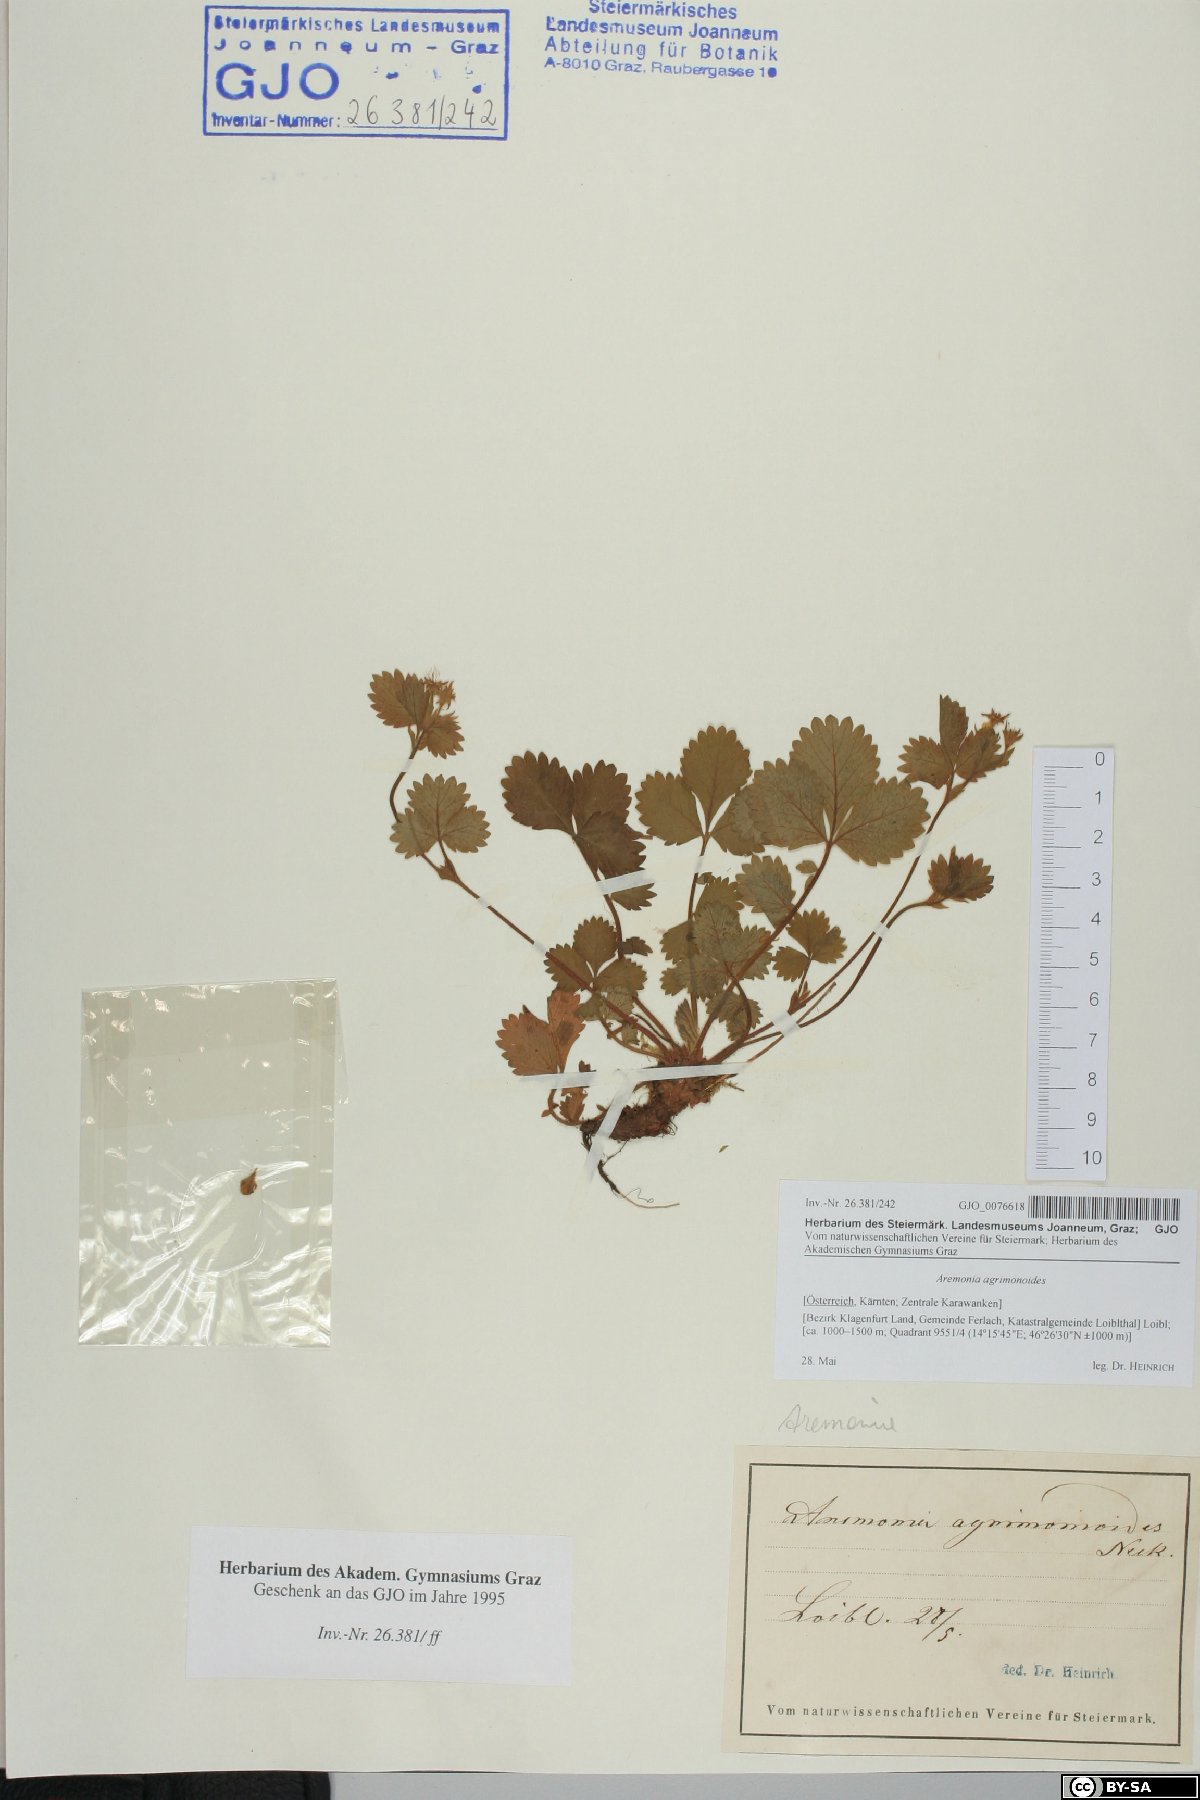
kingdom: Plantae
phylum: Tracheophyta
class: Magnoliopsida
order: Rosales
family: Rosaceae
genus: Aremonia
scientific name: Aremonia agrimonoides
